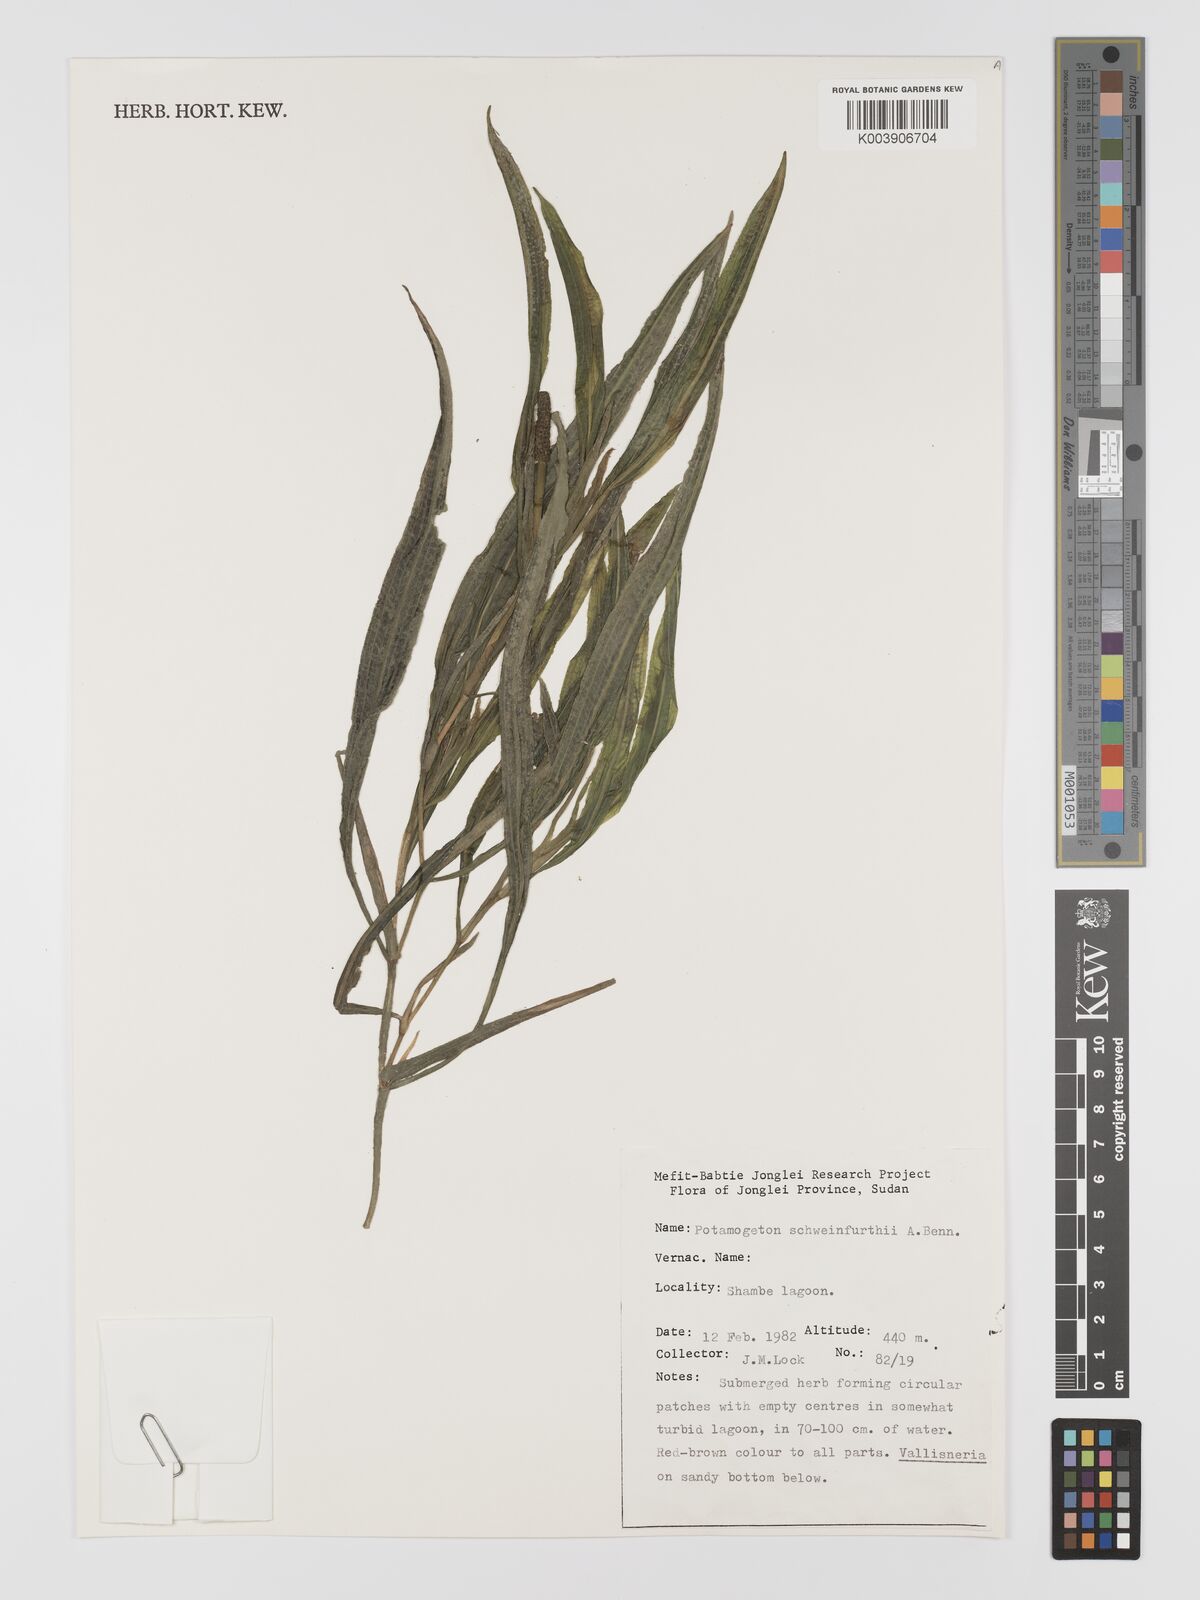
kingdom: Plantae
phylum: Tracheophyta
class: Liliopsida
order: Alismatales
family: Potamogetonaceae
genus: Potamogeton
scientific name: Potamogeton schweinfurthii
